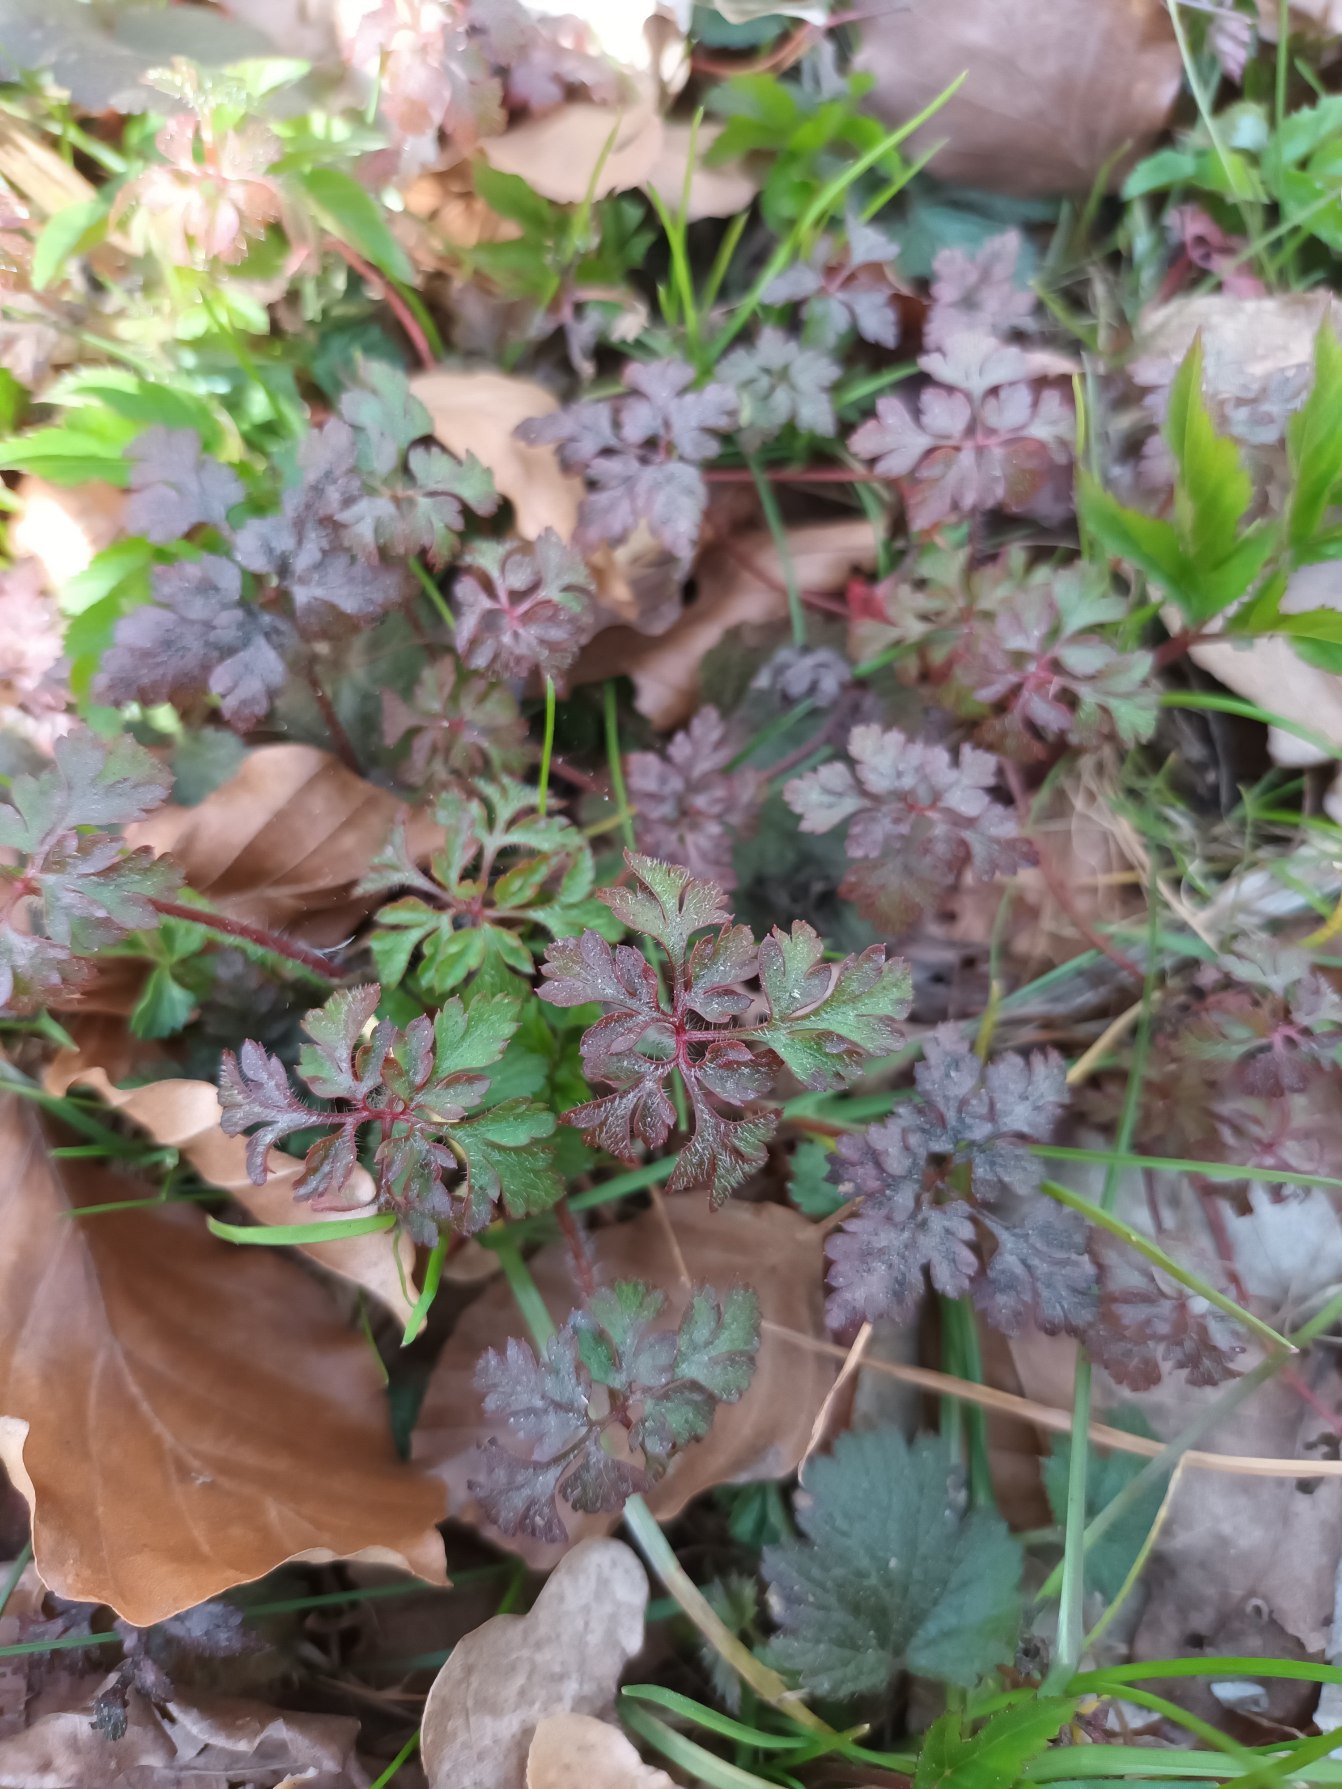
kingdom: Plantae
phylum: Tracheophyta
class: Magnoliopsida
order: Geraniales
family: Geraniaceae
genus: Geranium
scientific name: Geranium robertianum
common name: Stinkende storkenæb
